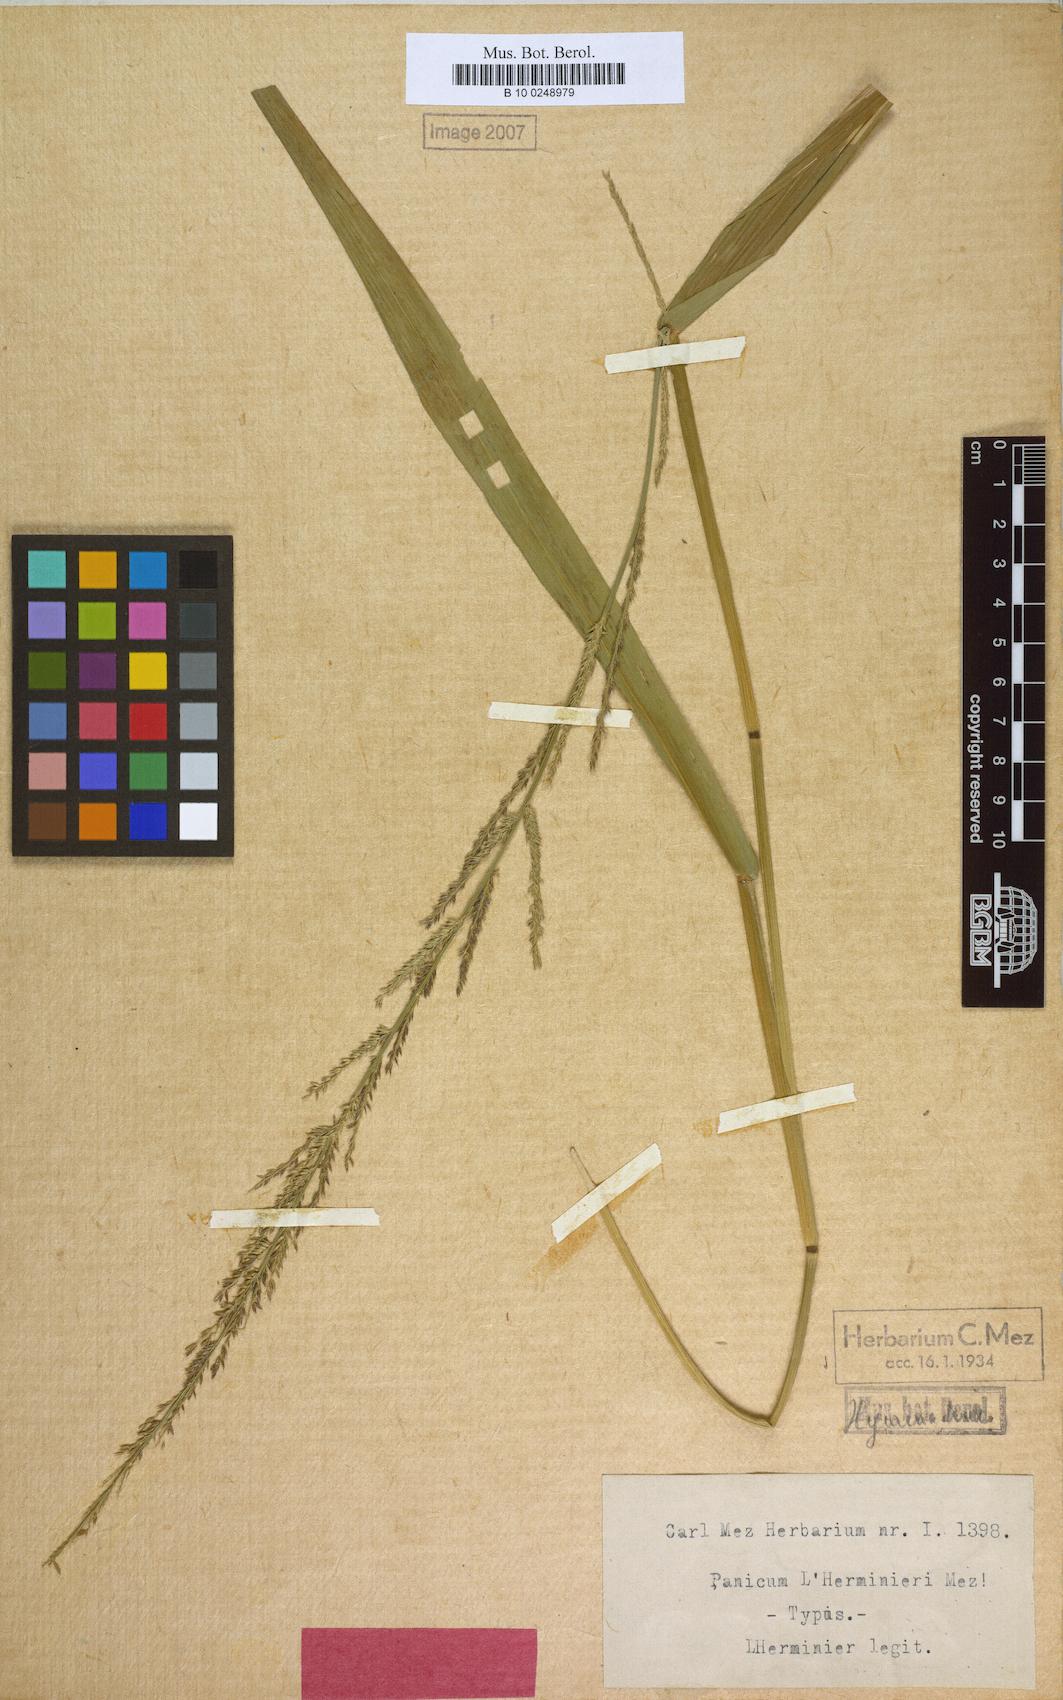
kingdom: Plantae
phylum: Tracheophyta
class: Liliopsida
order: Poales
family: Poaceae
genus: Ichnanthus
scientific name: Ichnanthus pallens
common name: Water grass
